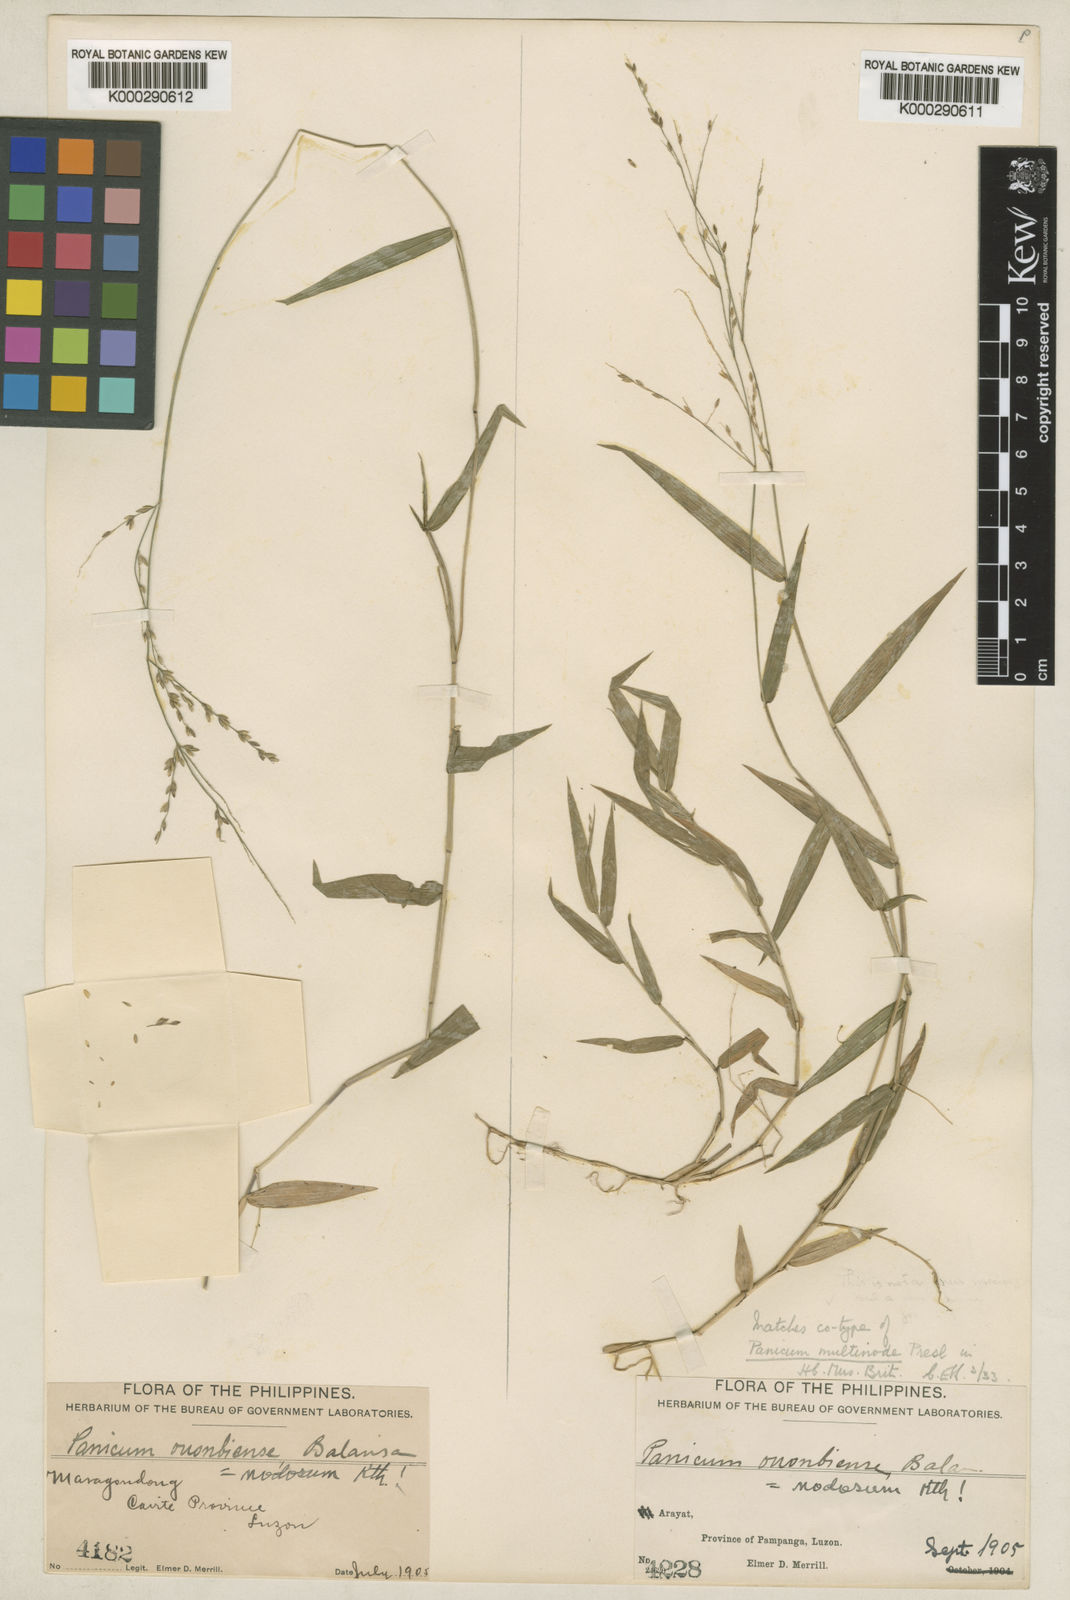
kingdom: Plantae
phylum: Tracheophyta
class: Liliopsida
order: Poales
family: Poaceae
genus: Ottochloa
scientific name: Ottochloa nodosa
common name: Slender-panic grass
